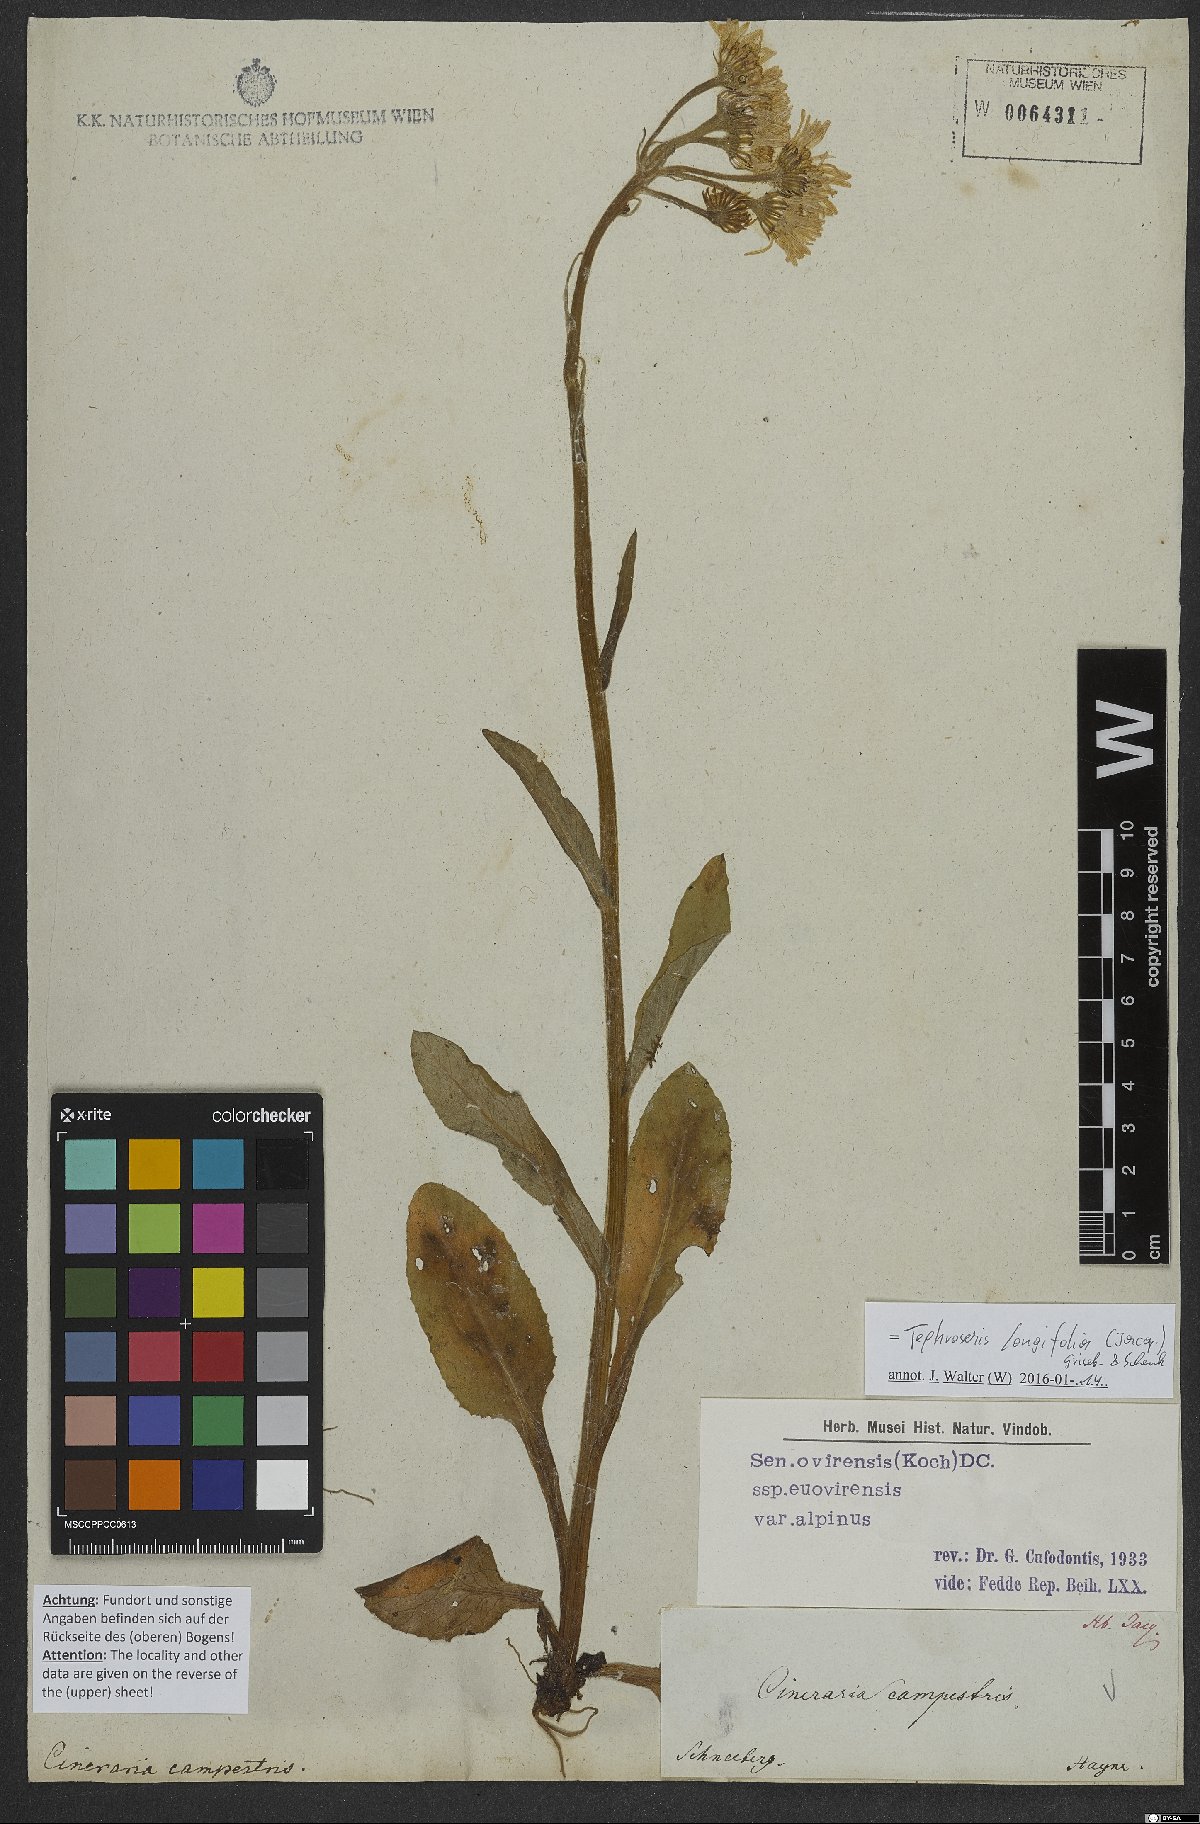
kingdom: Plantae
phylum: Tracheophyta
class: Magnoliopsida
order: Asterales
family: Asteraceae
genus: Tephroseris
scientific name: Tephroseris longifolia
